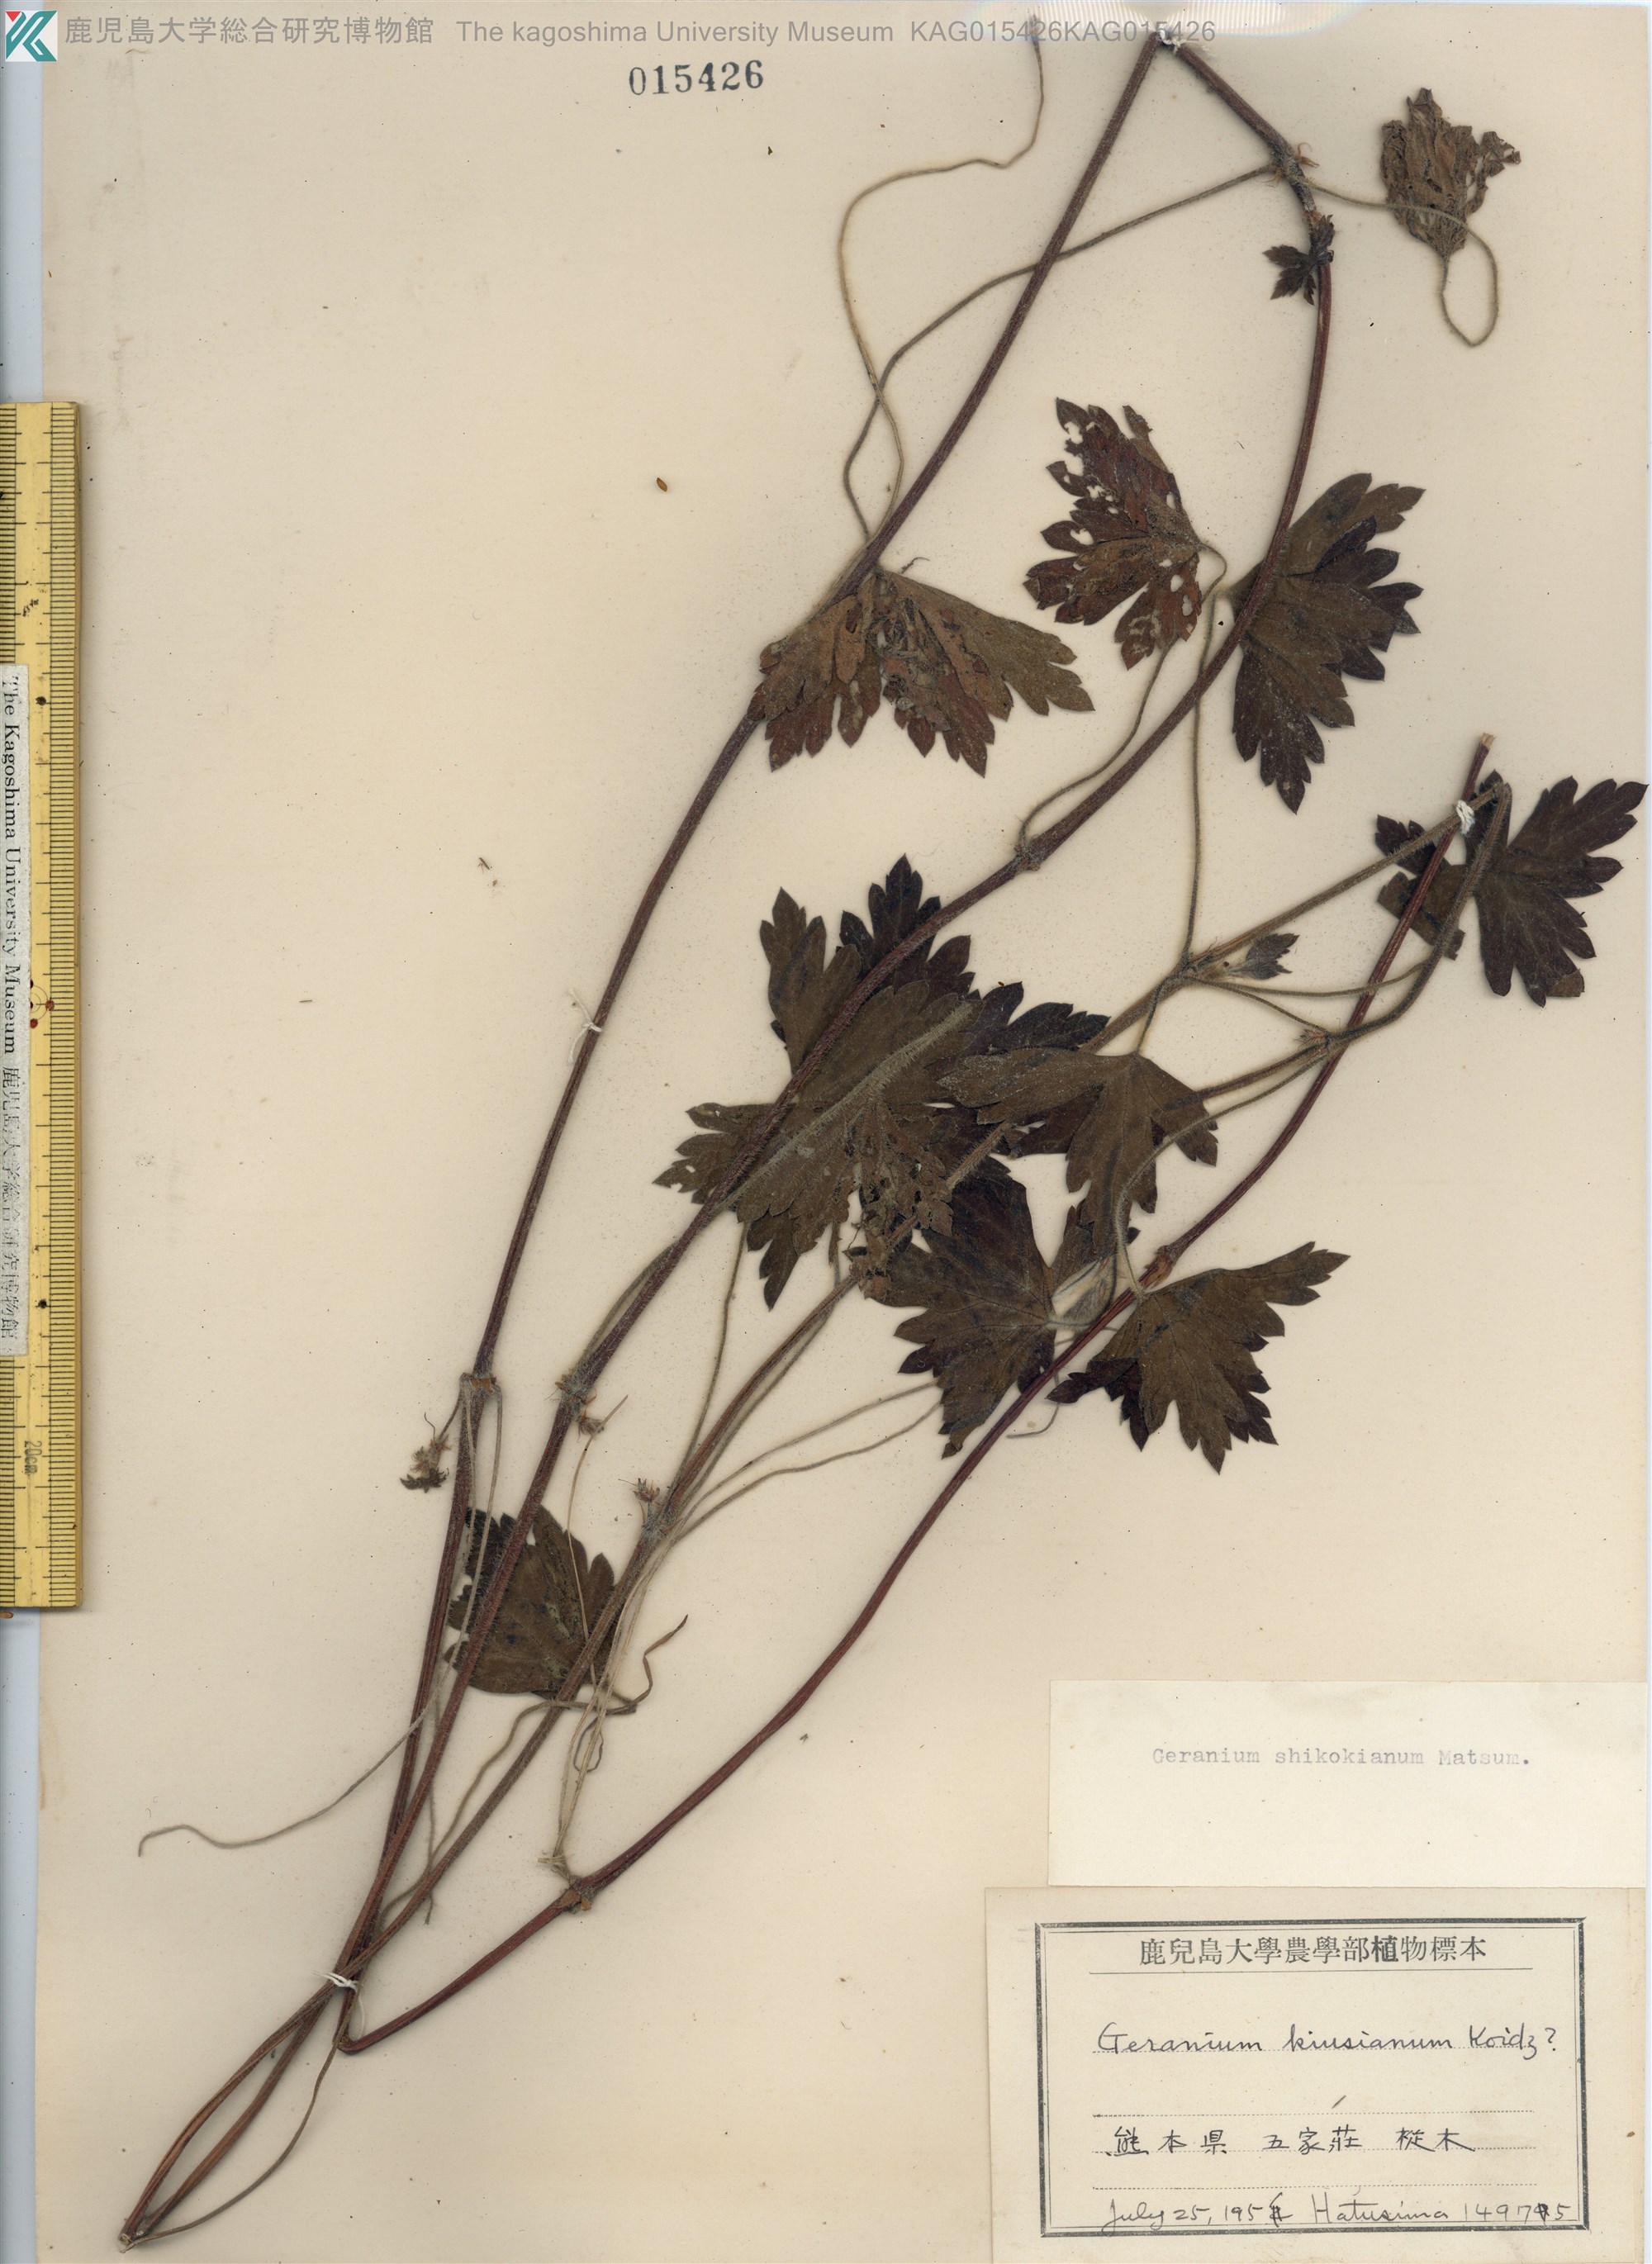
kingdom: Plantae
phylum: Tracheophyta
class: Magnoliopsida
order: Geraniales
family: Geraniaceae
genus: Geranium
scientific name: Geranium shikokianum
